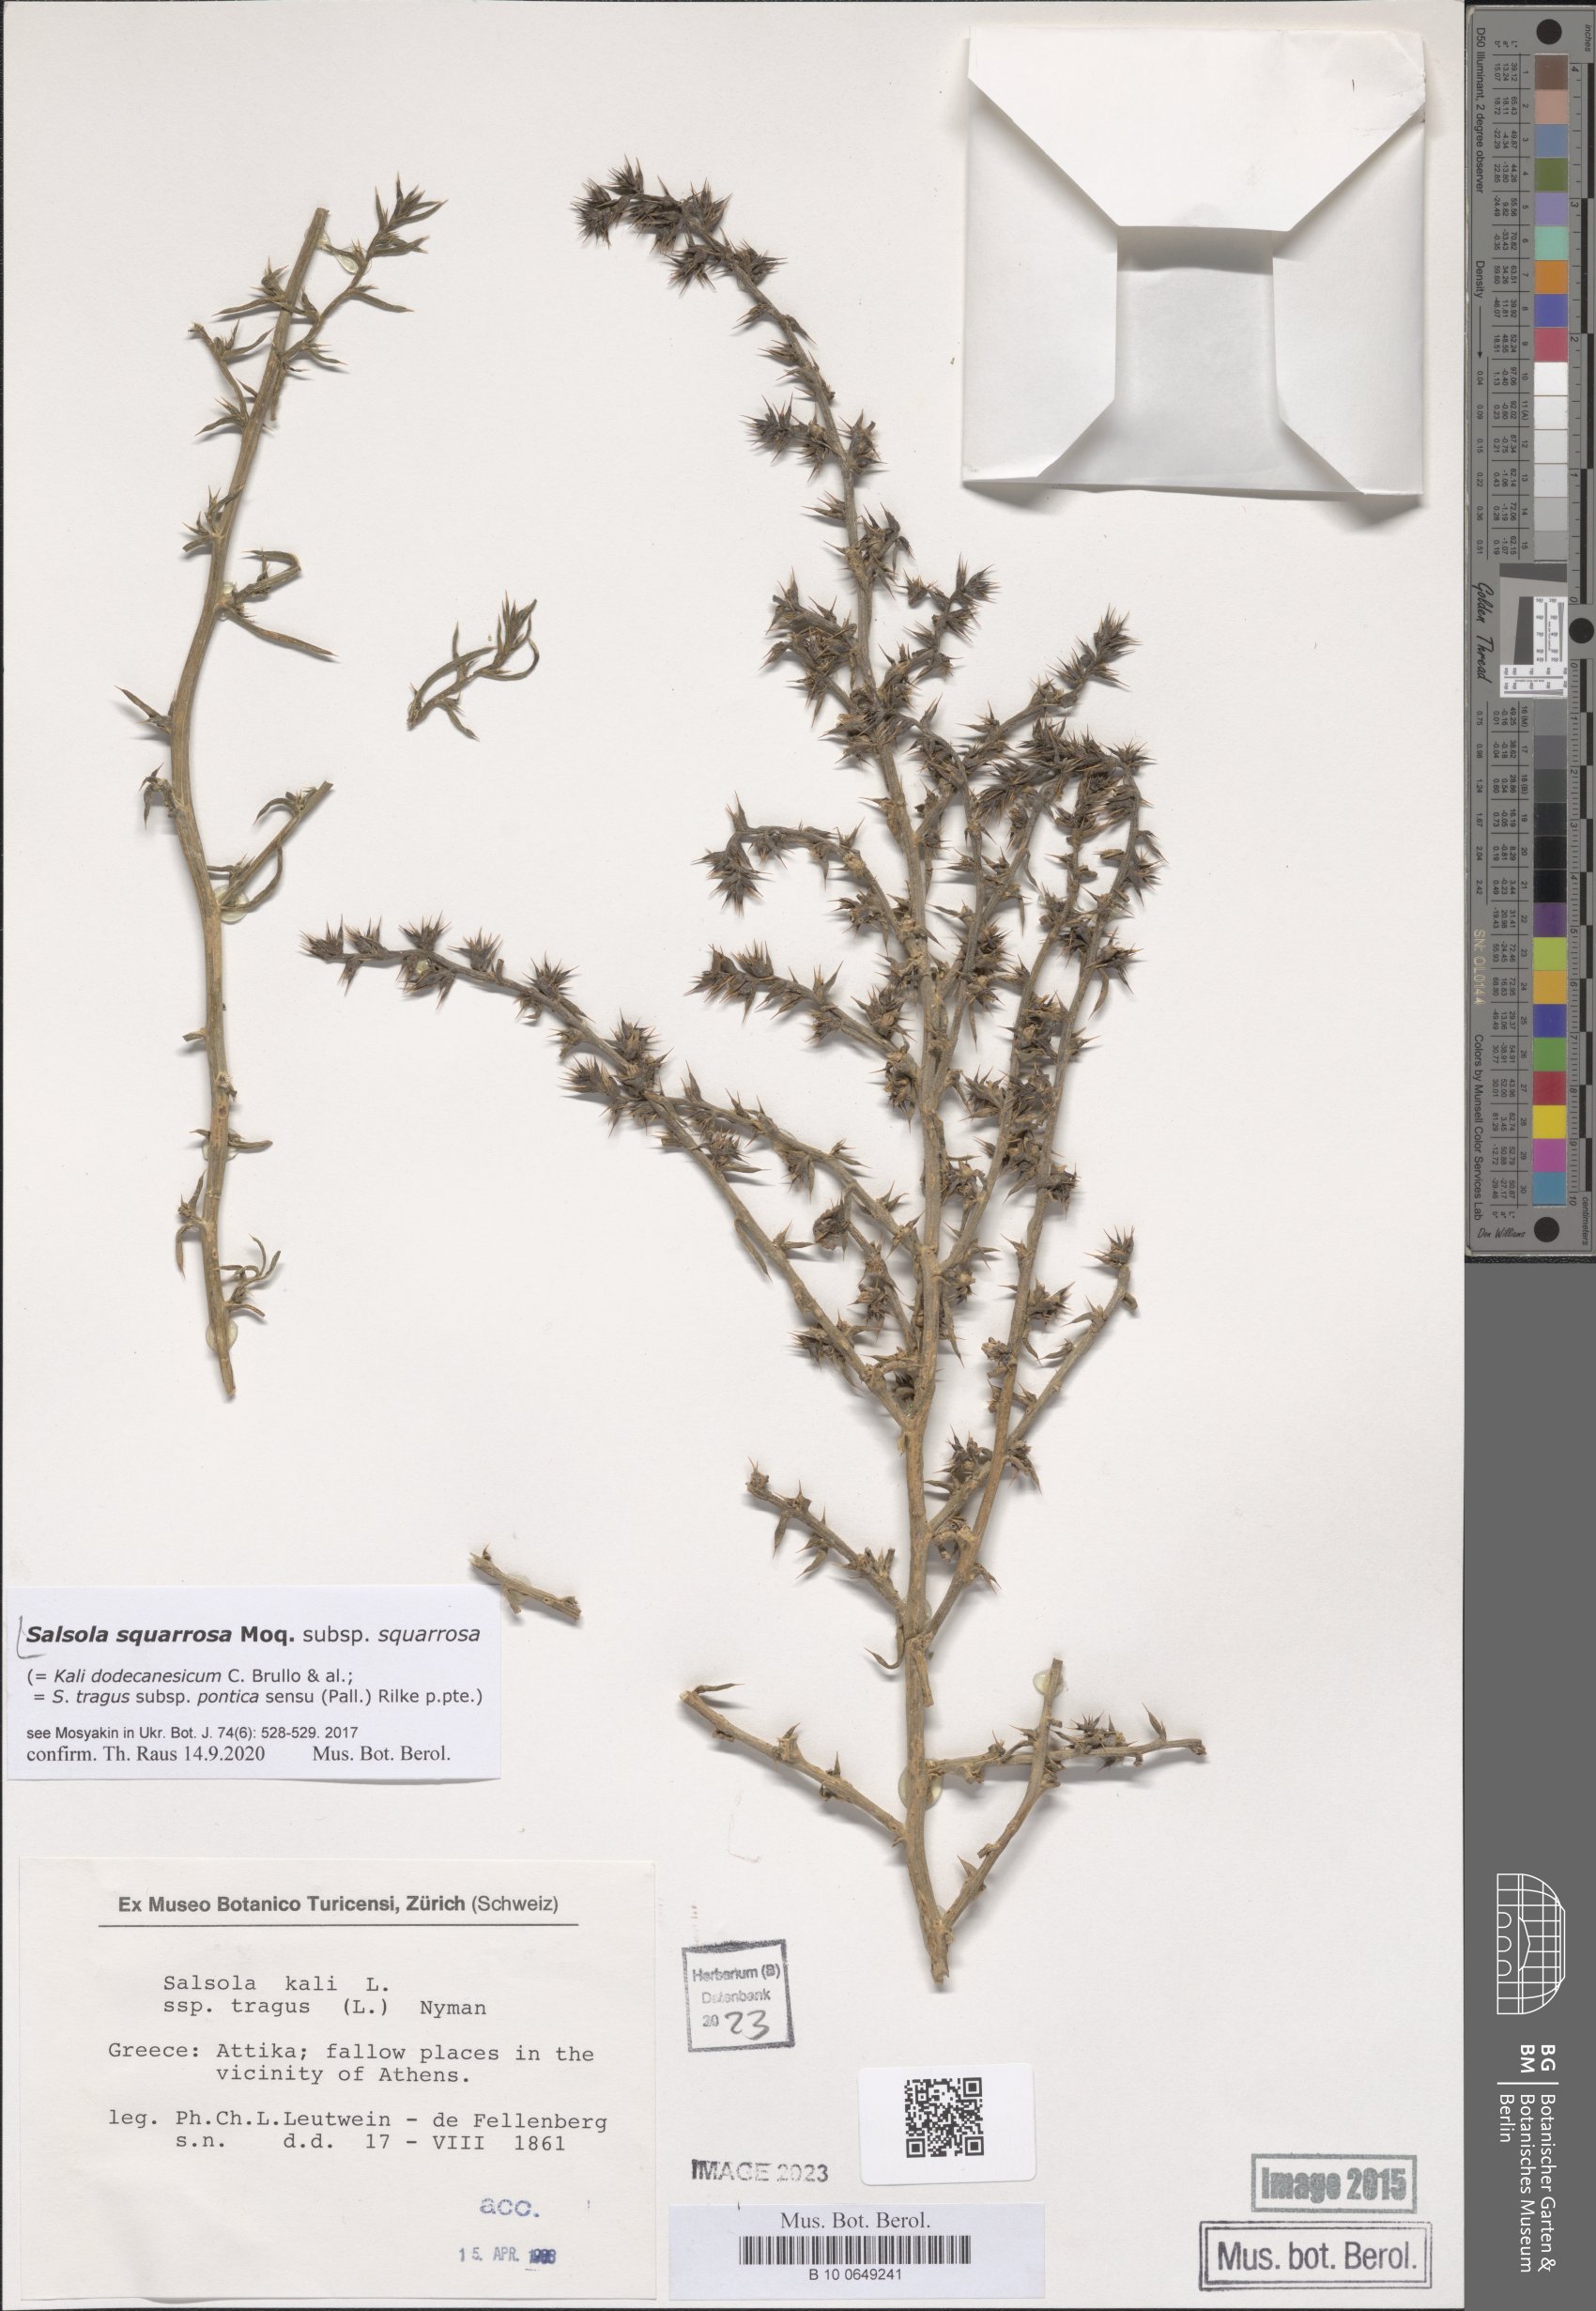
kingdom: Plantae
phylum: Tracheophyta
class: Magnoliopsida
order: Caryophyllales
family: Amaranthaceae
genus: Salsola
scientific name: Salsola squarrosa
